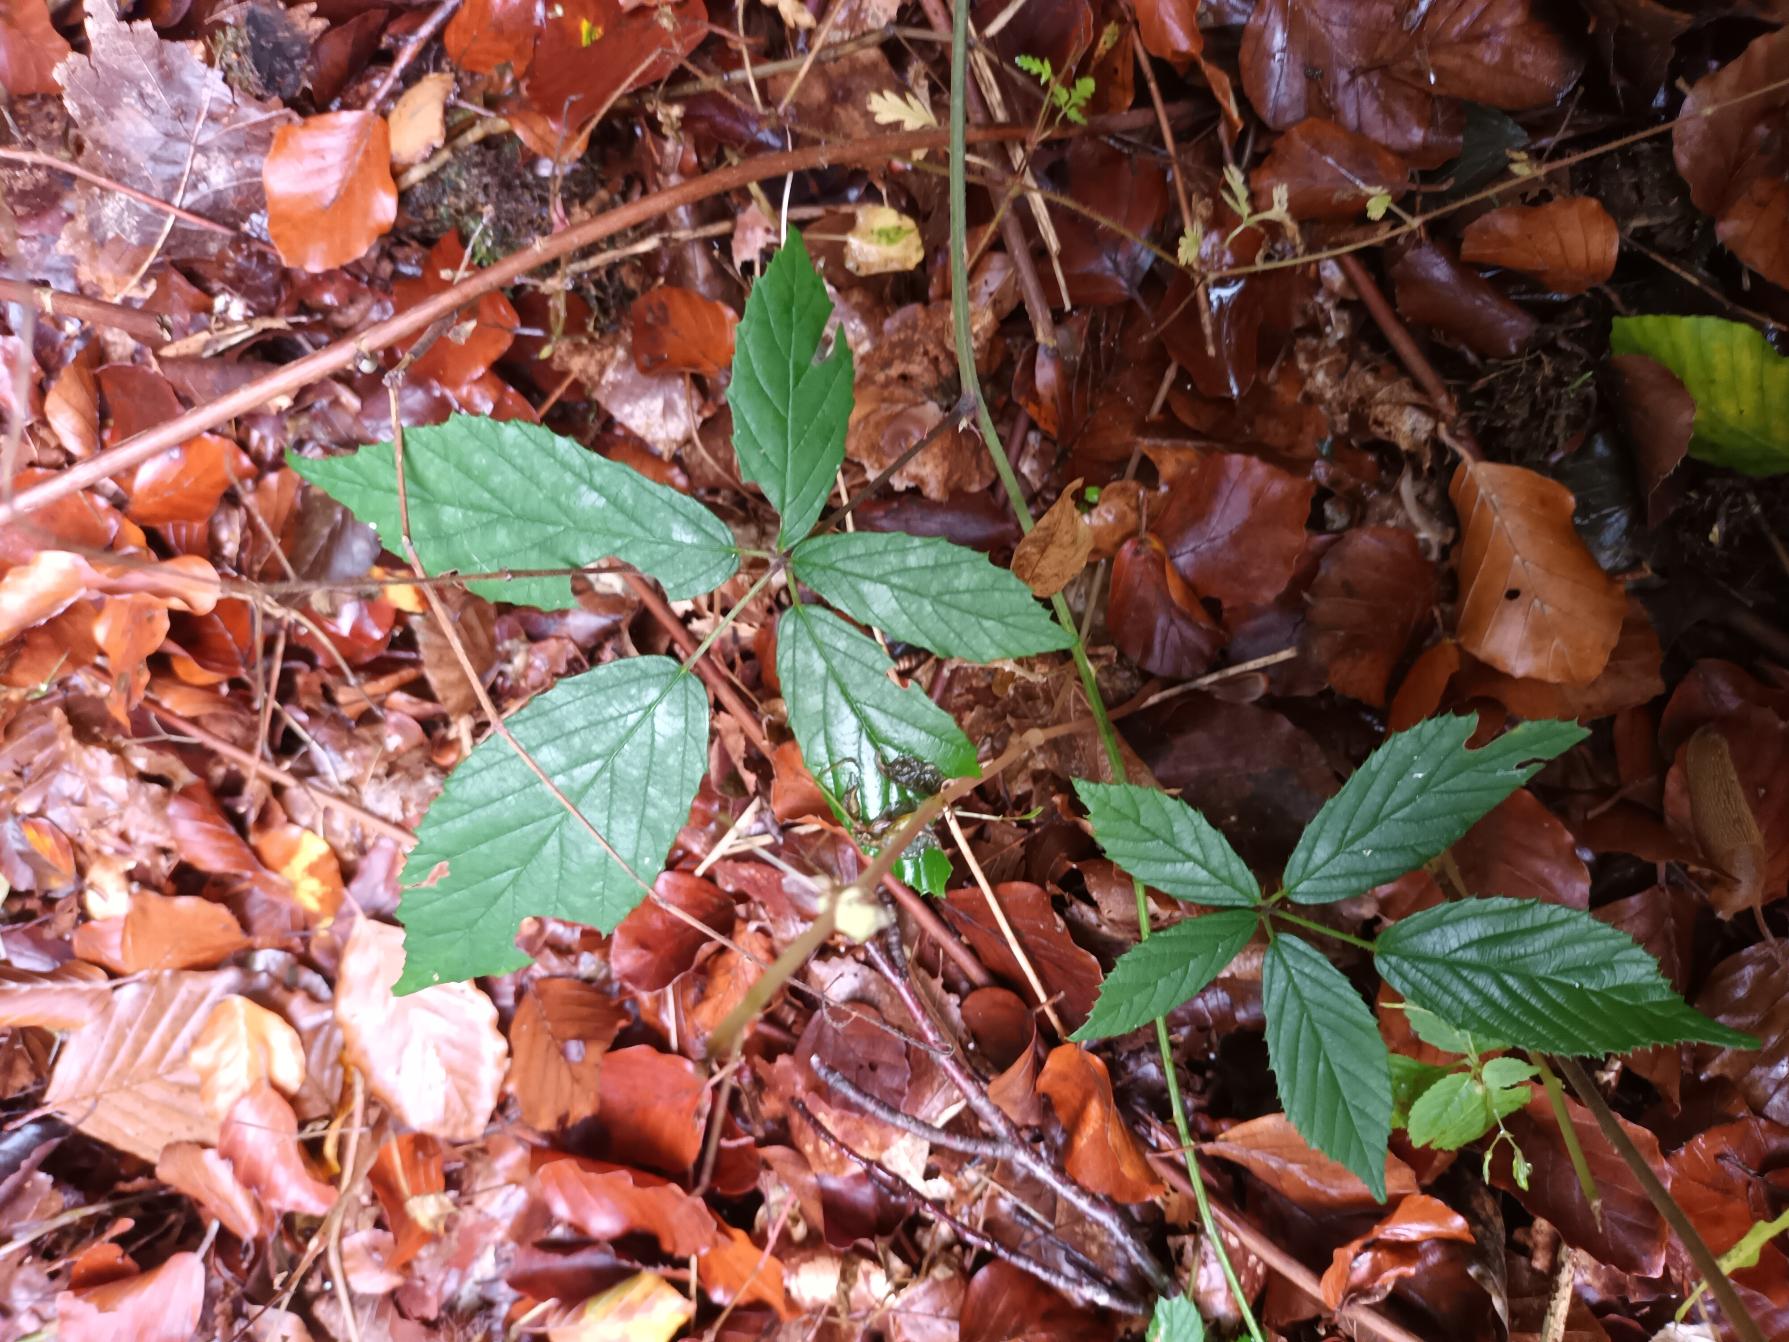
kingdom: Plantae
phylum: Tracheophyta
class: Magnoliopsida
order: Rosales
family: Rosaceae
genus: Rubus
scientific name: Rubus radula
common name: Rasperu brombær
